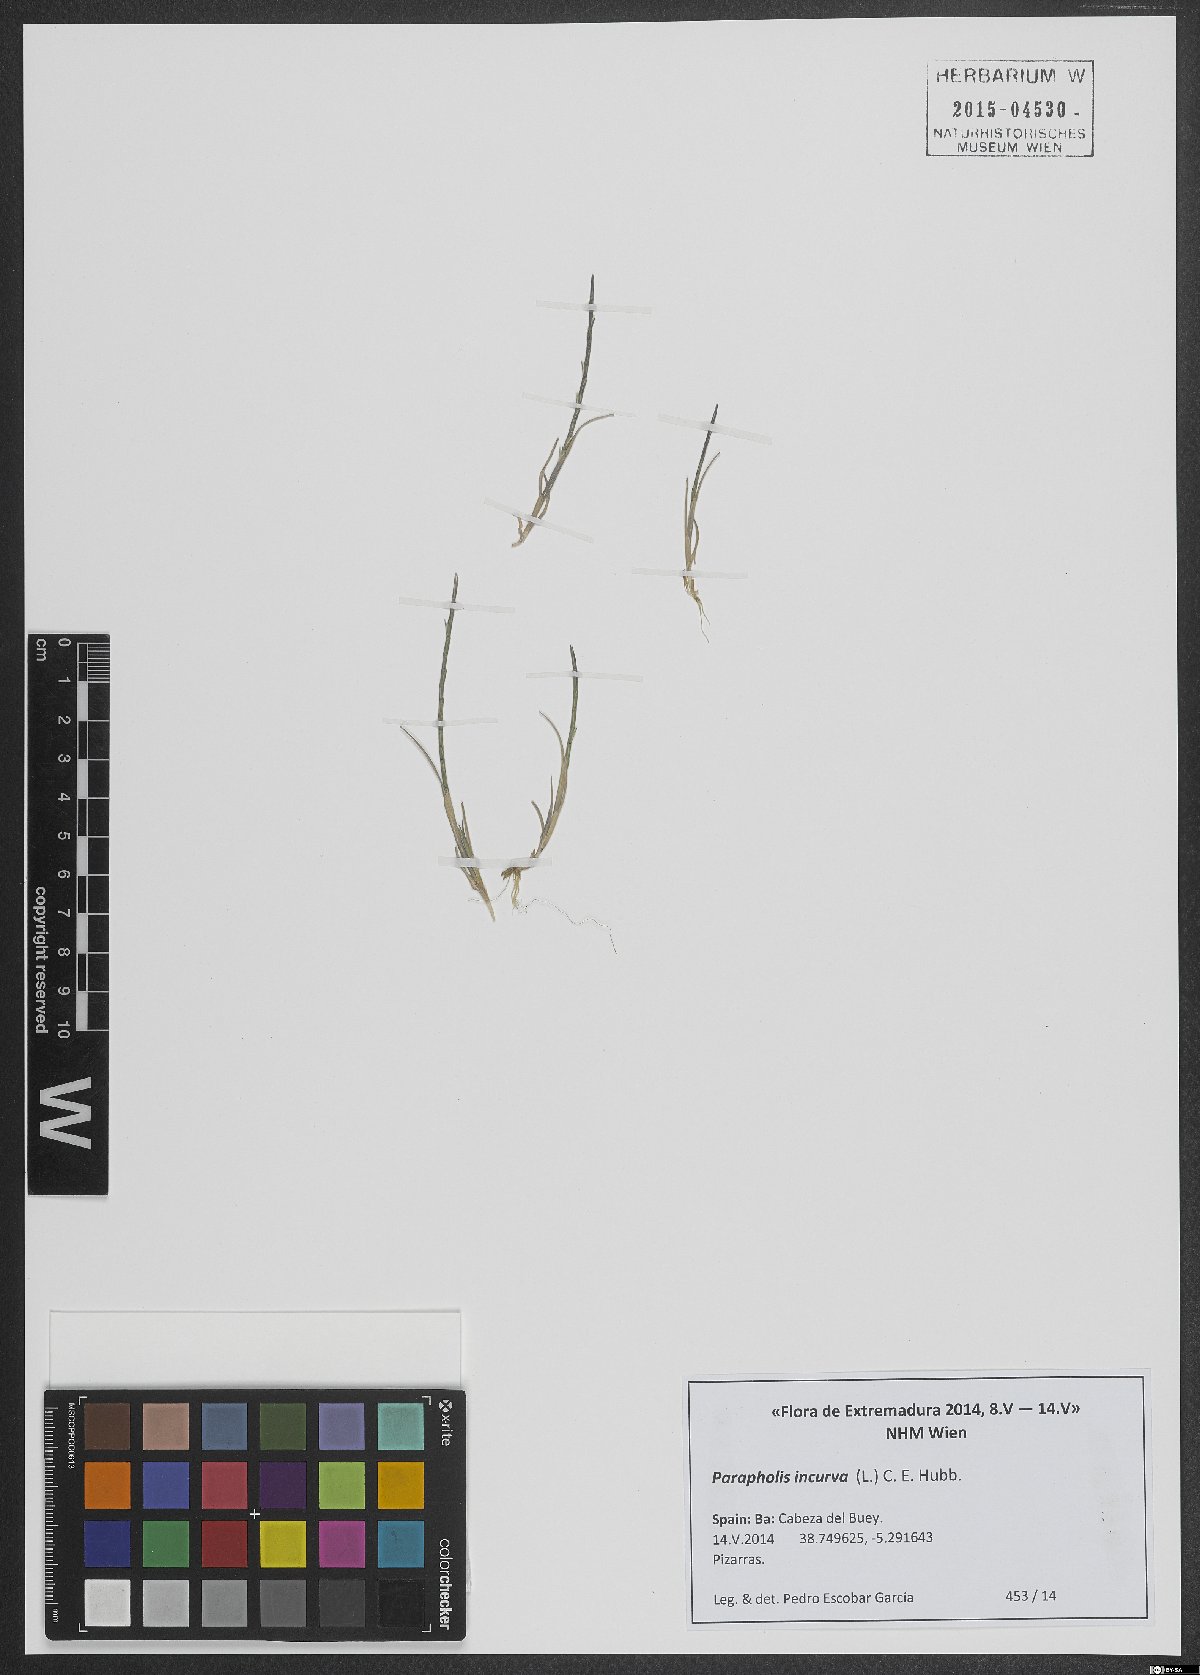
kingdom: Plantae
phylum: Tracheophyta
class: Liliopsida
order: Poales
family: Poaceae
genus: Parapholis
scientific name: Parapholis incurva
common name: Curved sicklegrass
